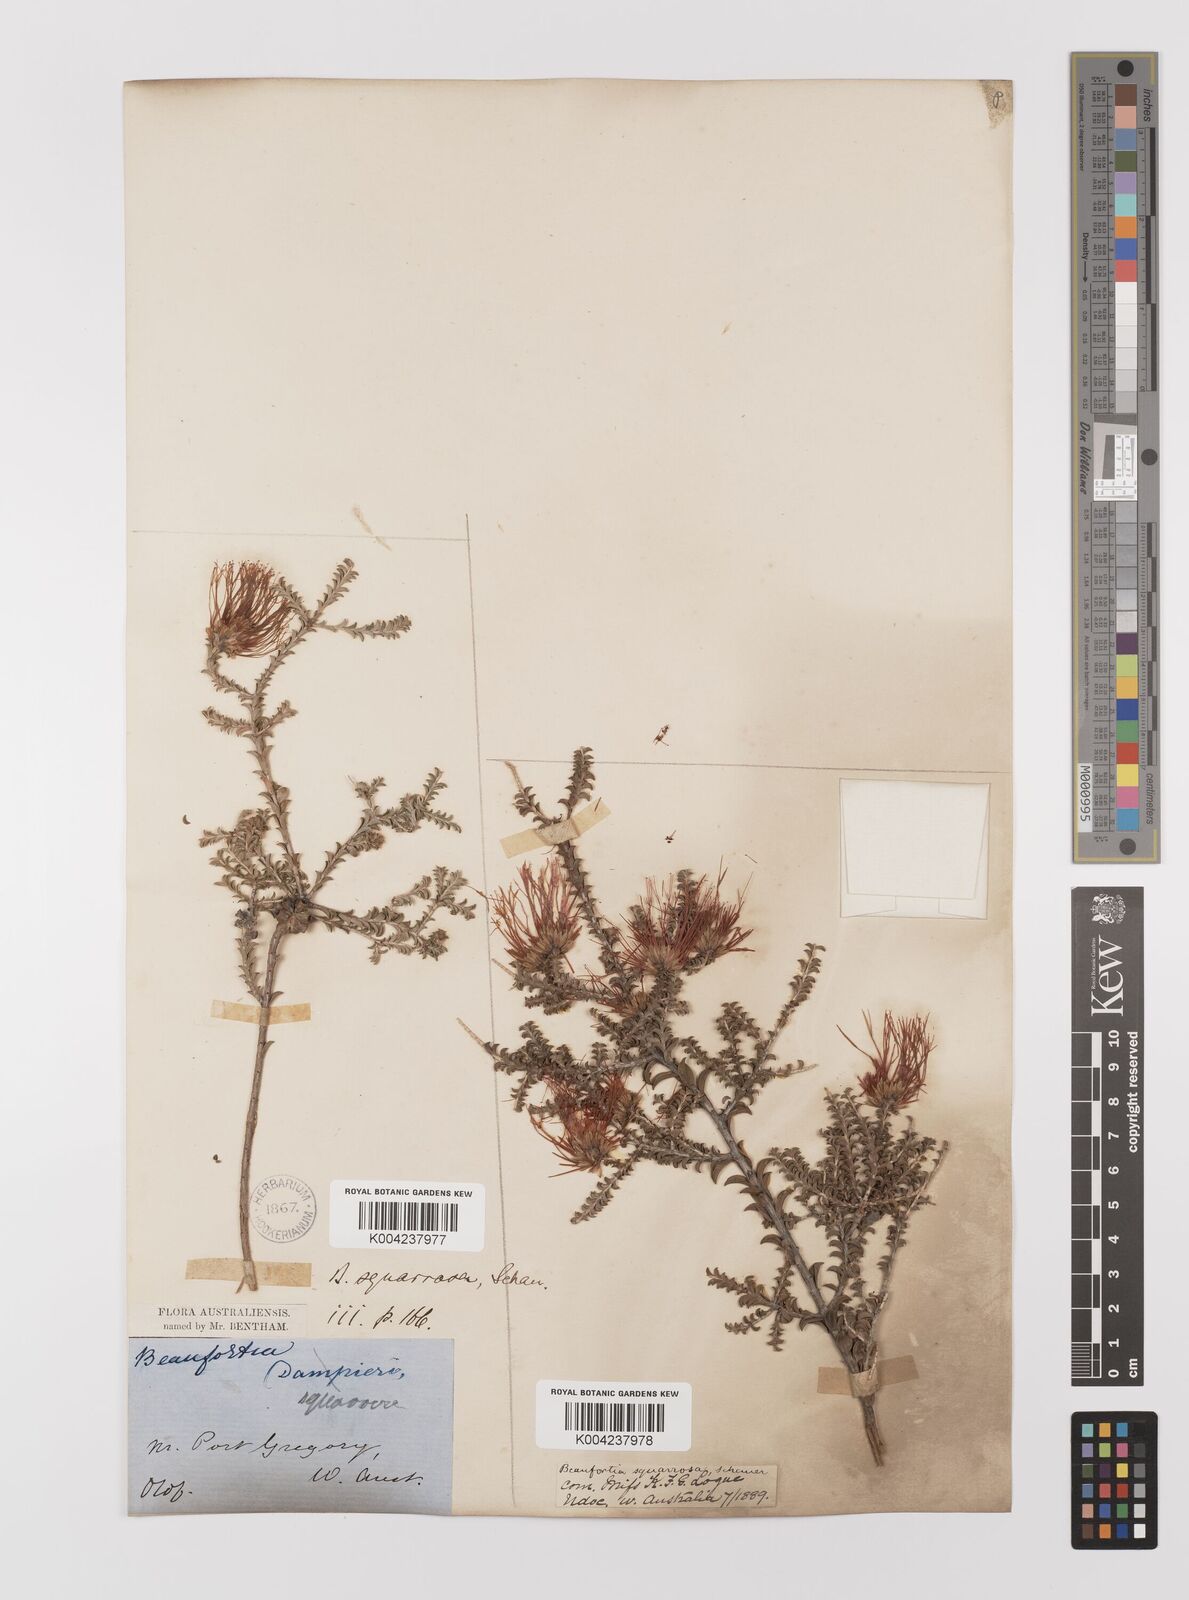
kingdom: Plantae
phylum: Tracheophyta
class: Magnoliopsida
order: Myrtales
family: Myrtaceae
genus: Melaleuca
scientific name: Melaleuca pulcherrima
